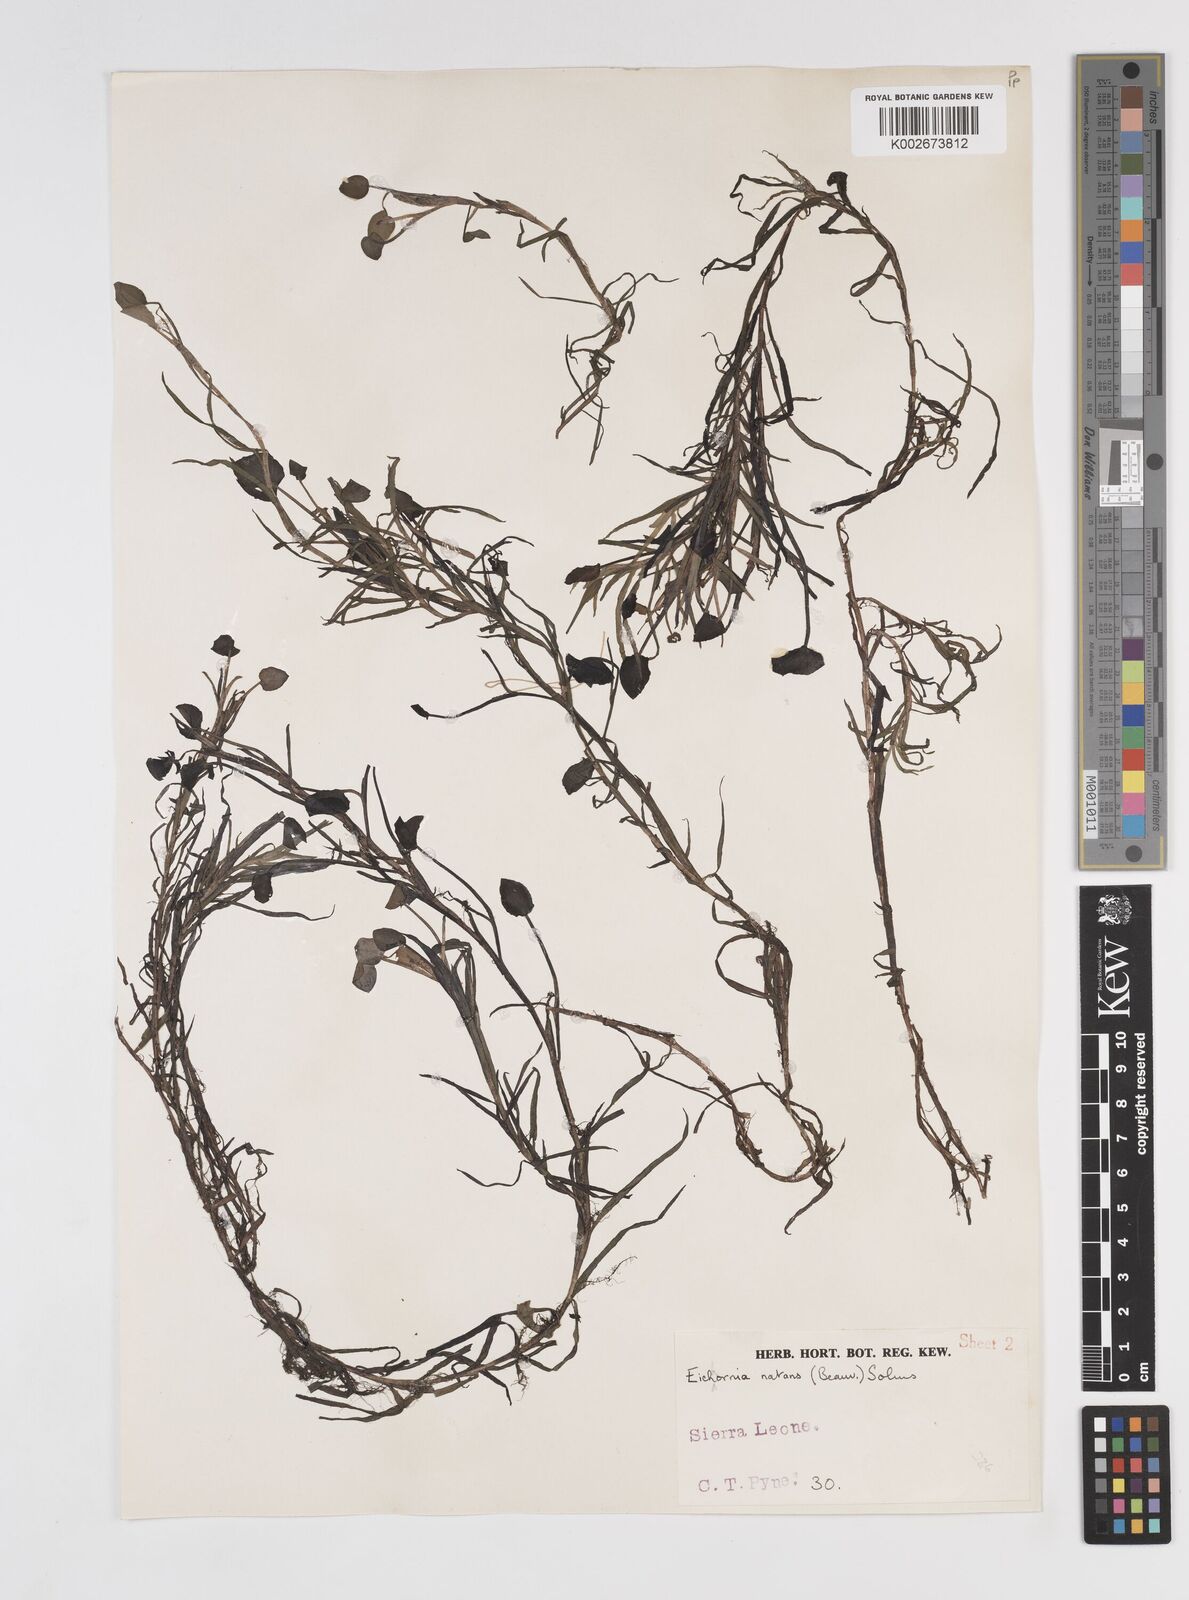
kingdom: Plantae
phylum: Tracheophyta
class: Liliopsida
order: Commelinales
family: Pontederiaceae
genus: Pontederia
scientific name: Pontederia diversifolia
